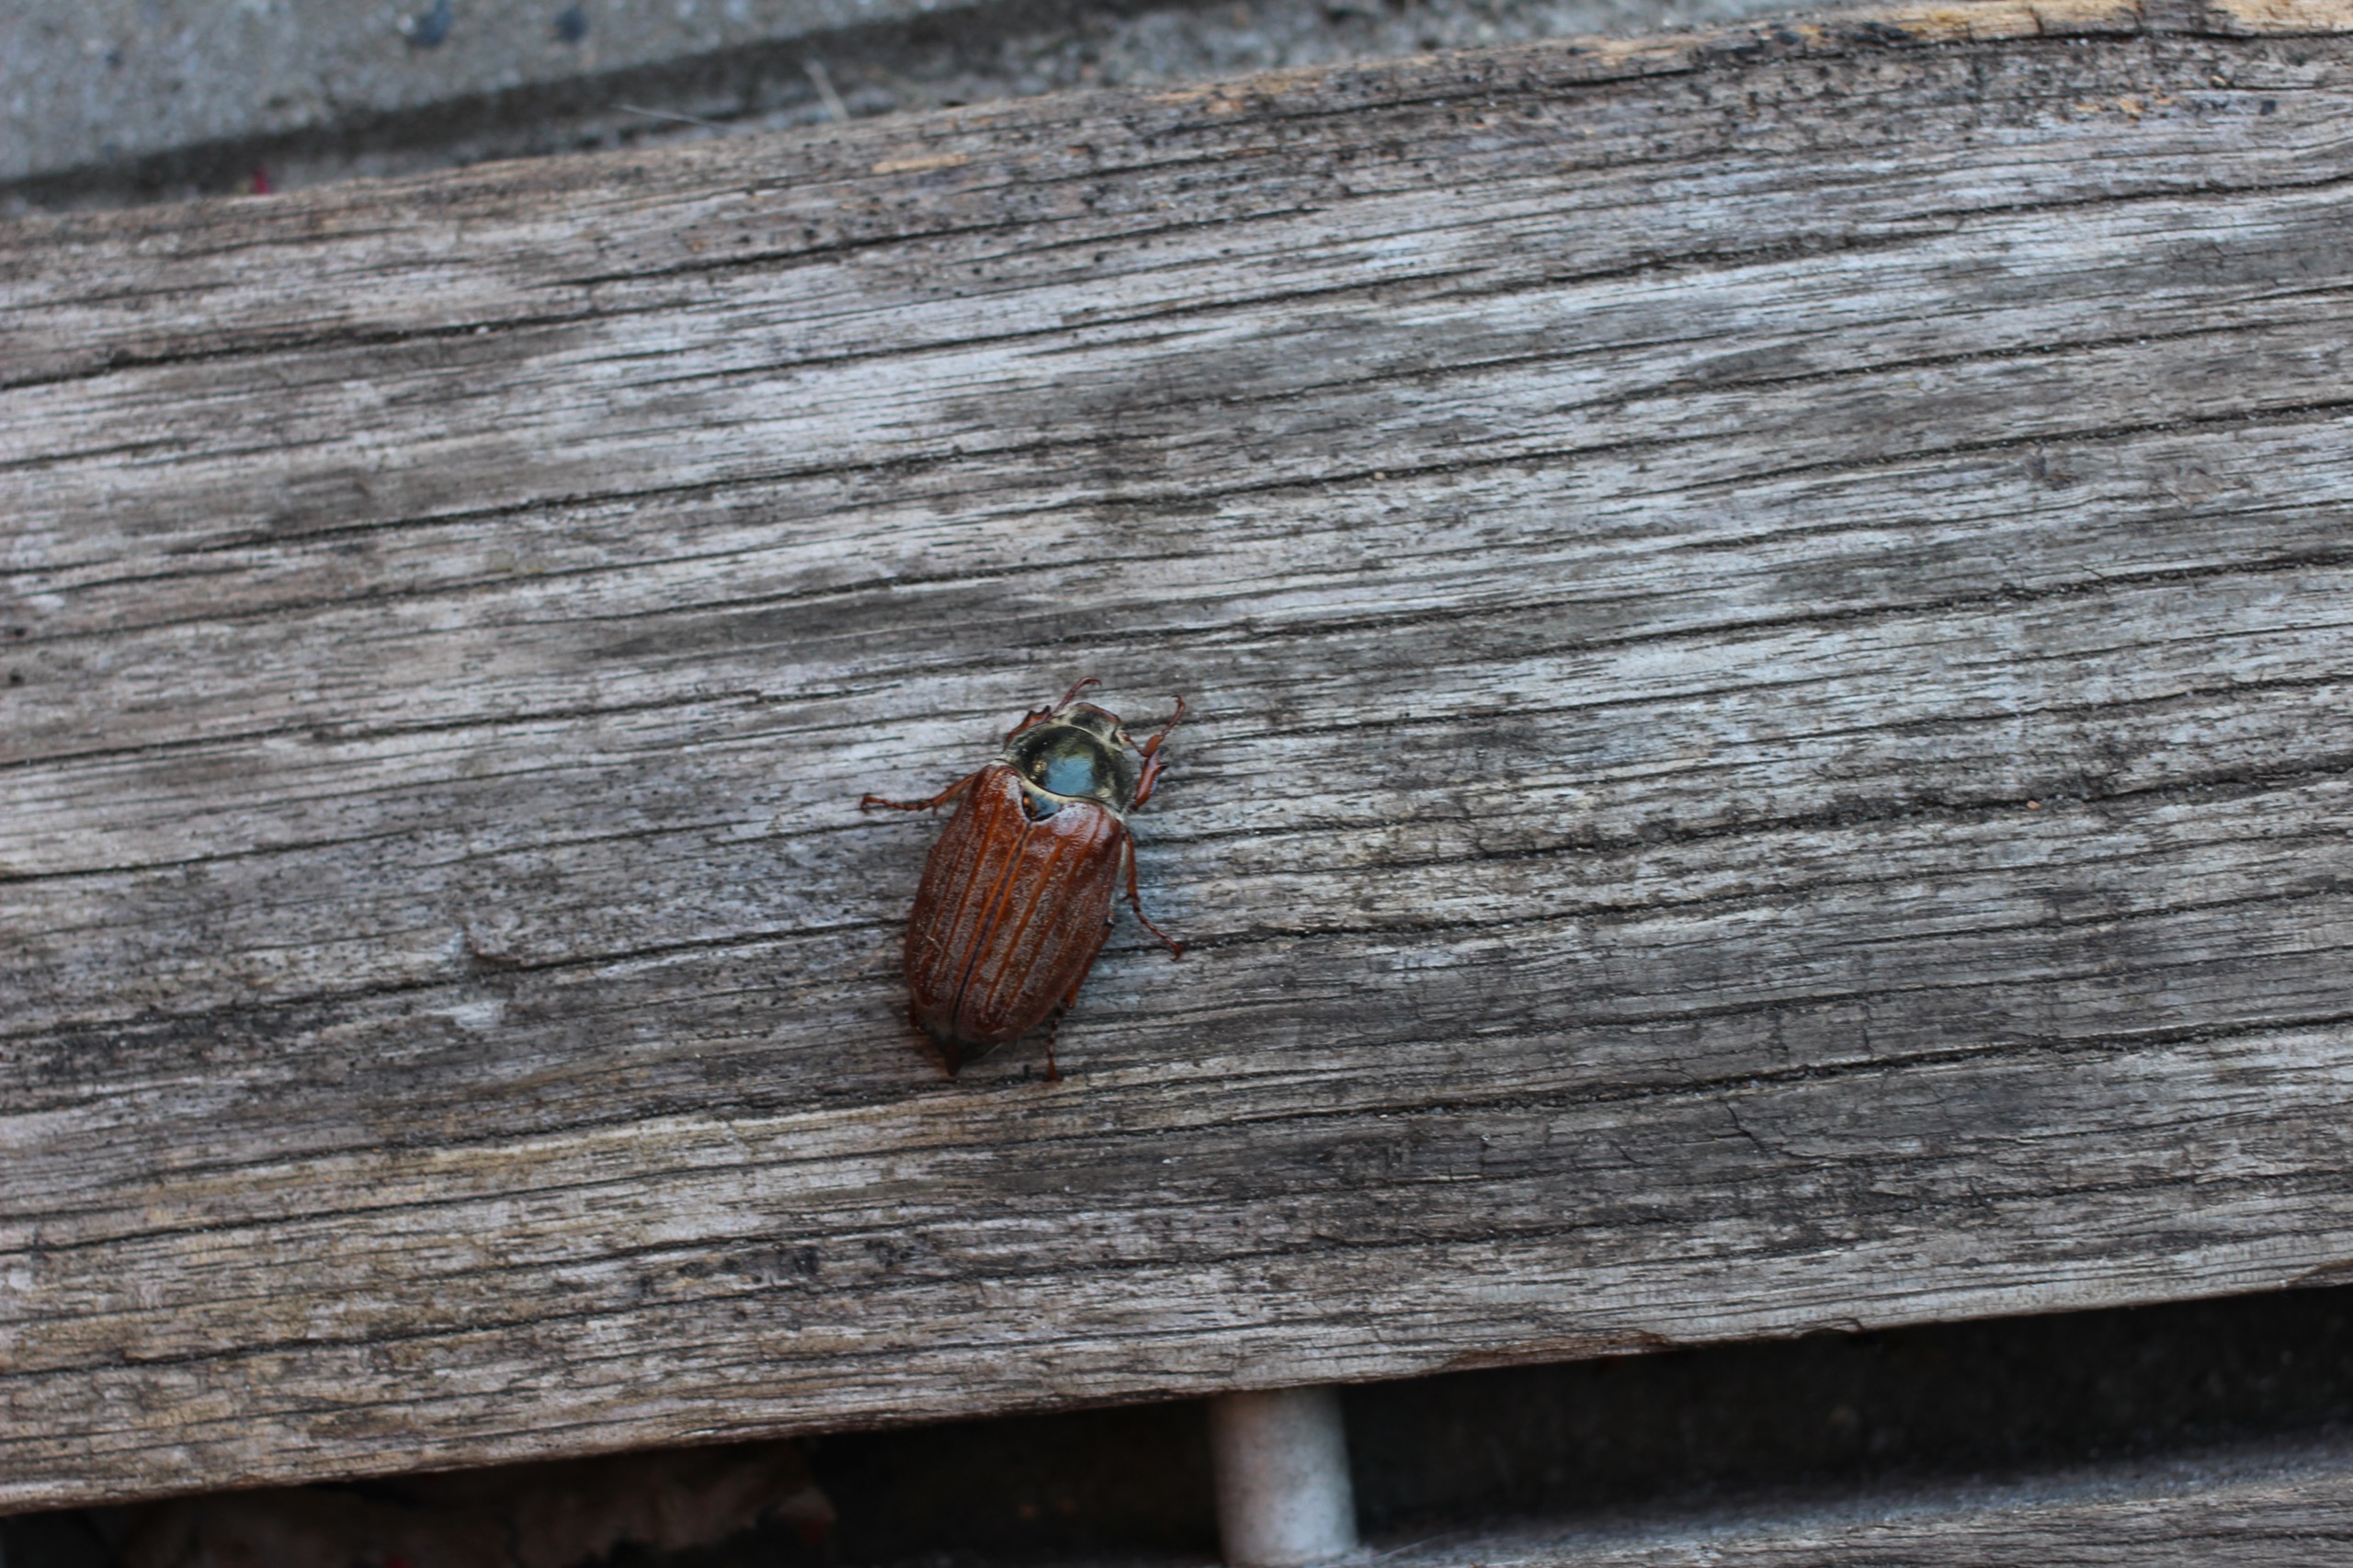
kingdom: Animalia
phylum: Arthropoda
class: Insecta
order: Coleoptera
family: Scarabaeidae
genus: Melolontha
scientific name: Melolontha melolontha
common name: Almindelig oldenborre
